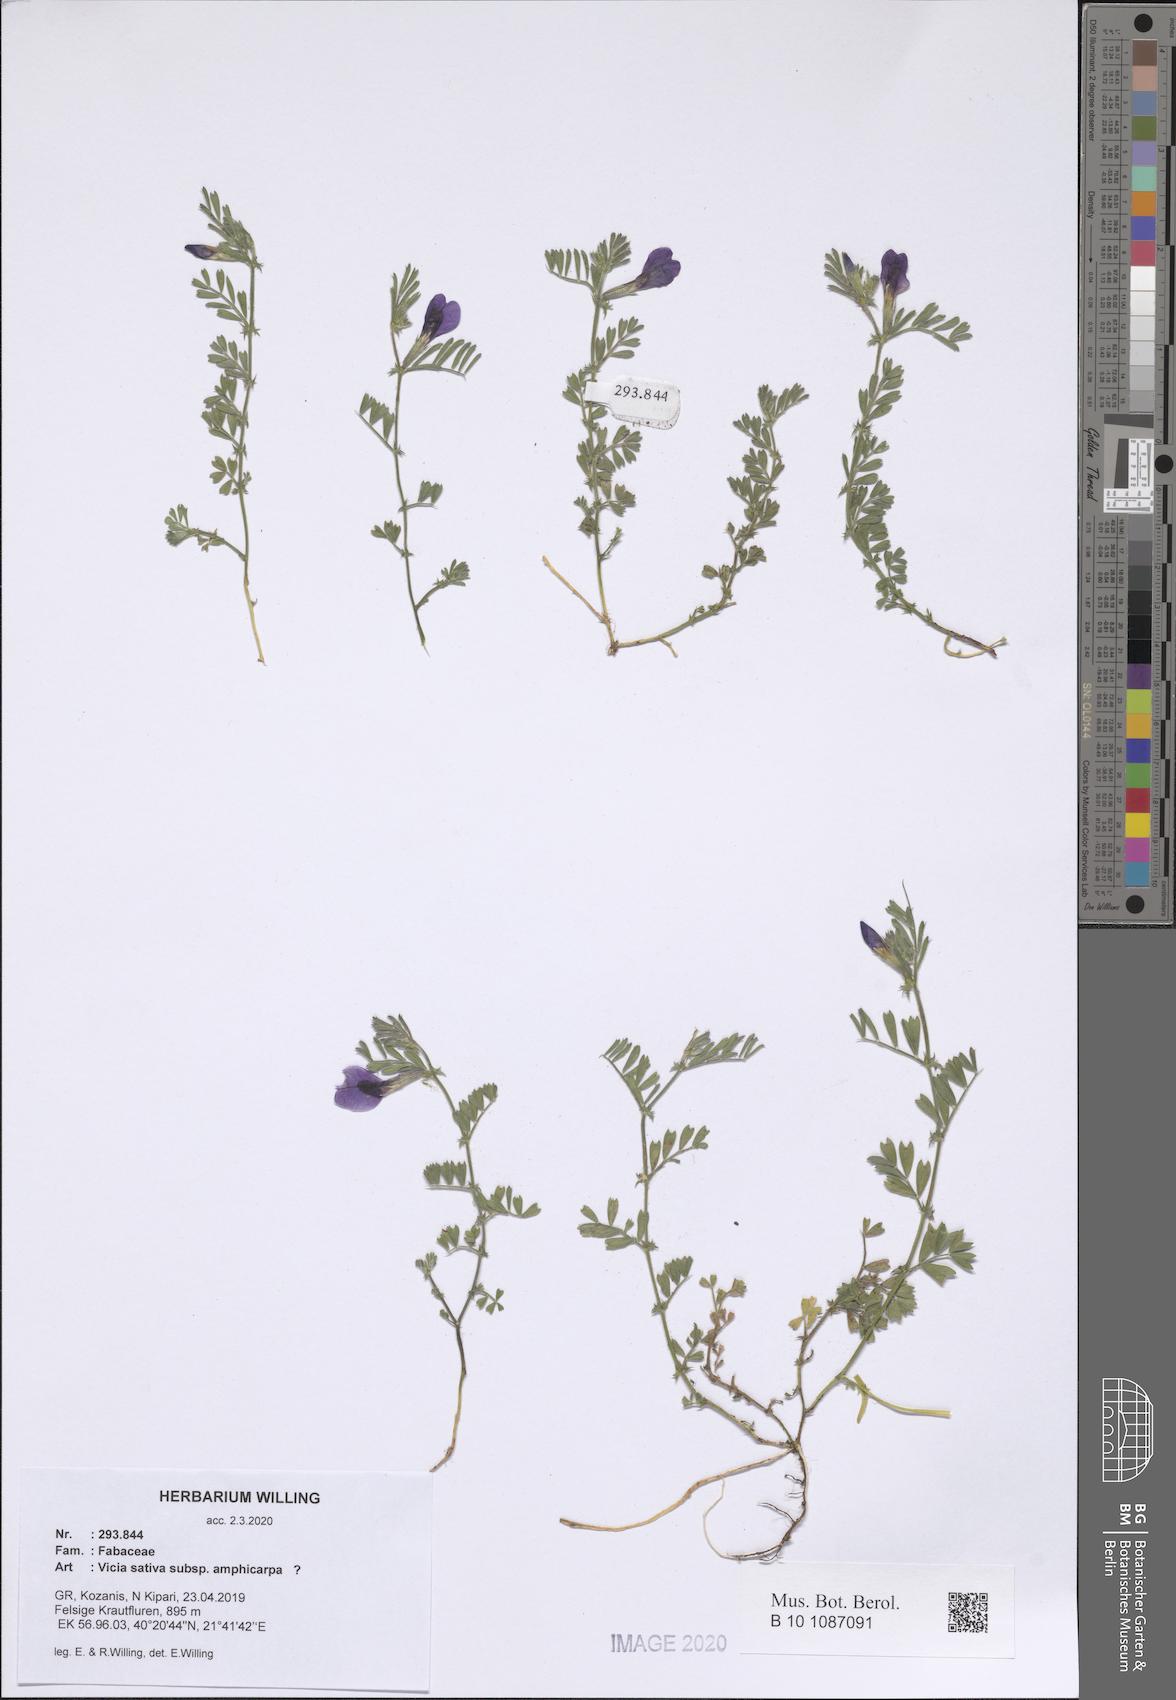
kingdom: Plantae
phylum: Tracheophyta
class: Magnoliopsida
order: Fabales
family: Fabaceae
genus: Vicia
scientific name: Vicia sativa
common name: Garden vetch
